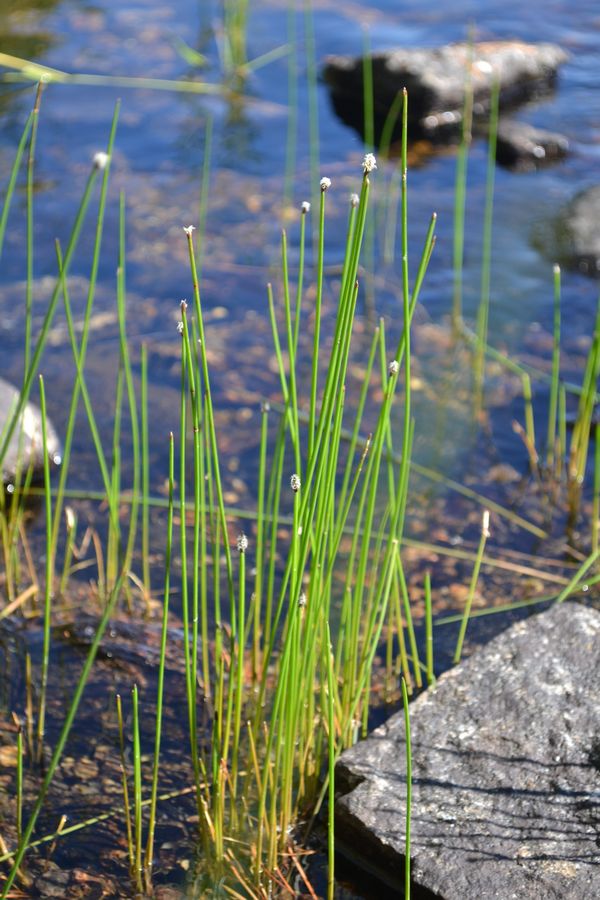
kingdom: Plantae
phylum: Tracheophyta
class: Liliopsida
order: Poales
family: Cyperaceae
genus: Trichophorum
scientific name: Trichophorum cespitosum
